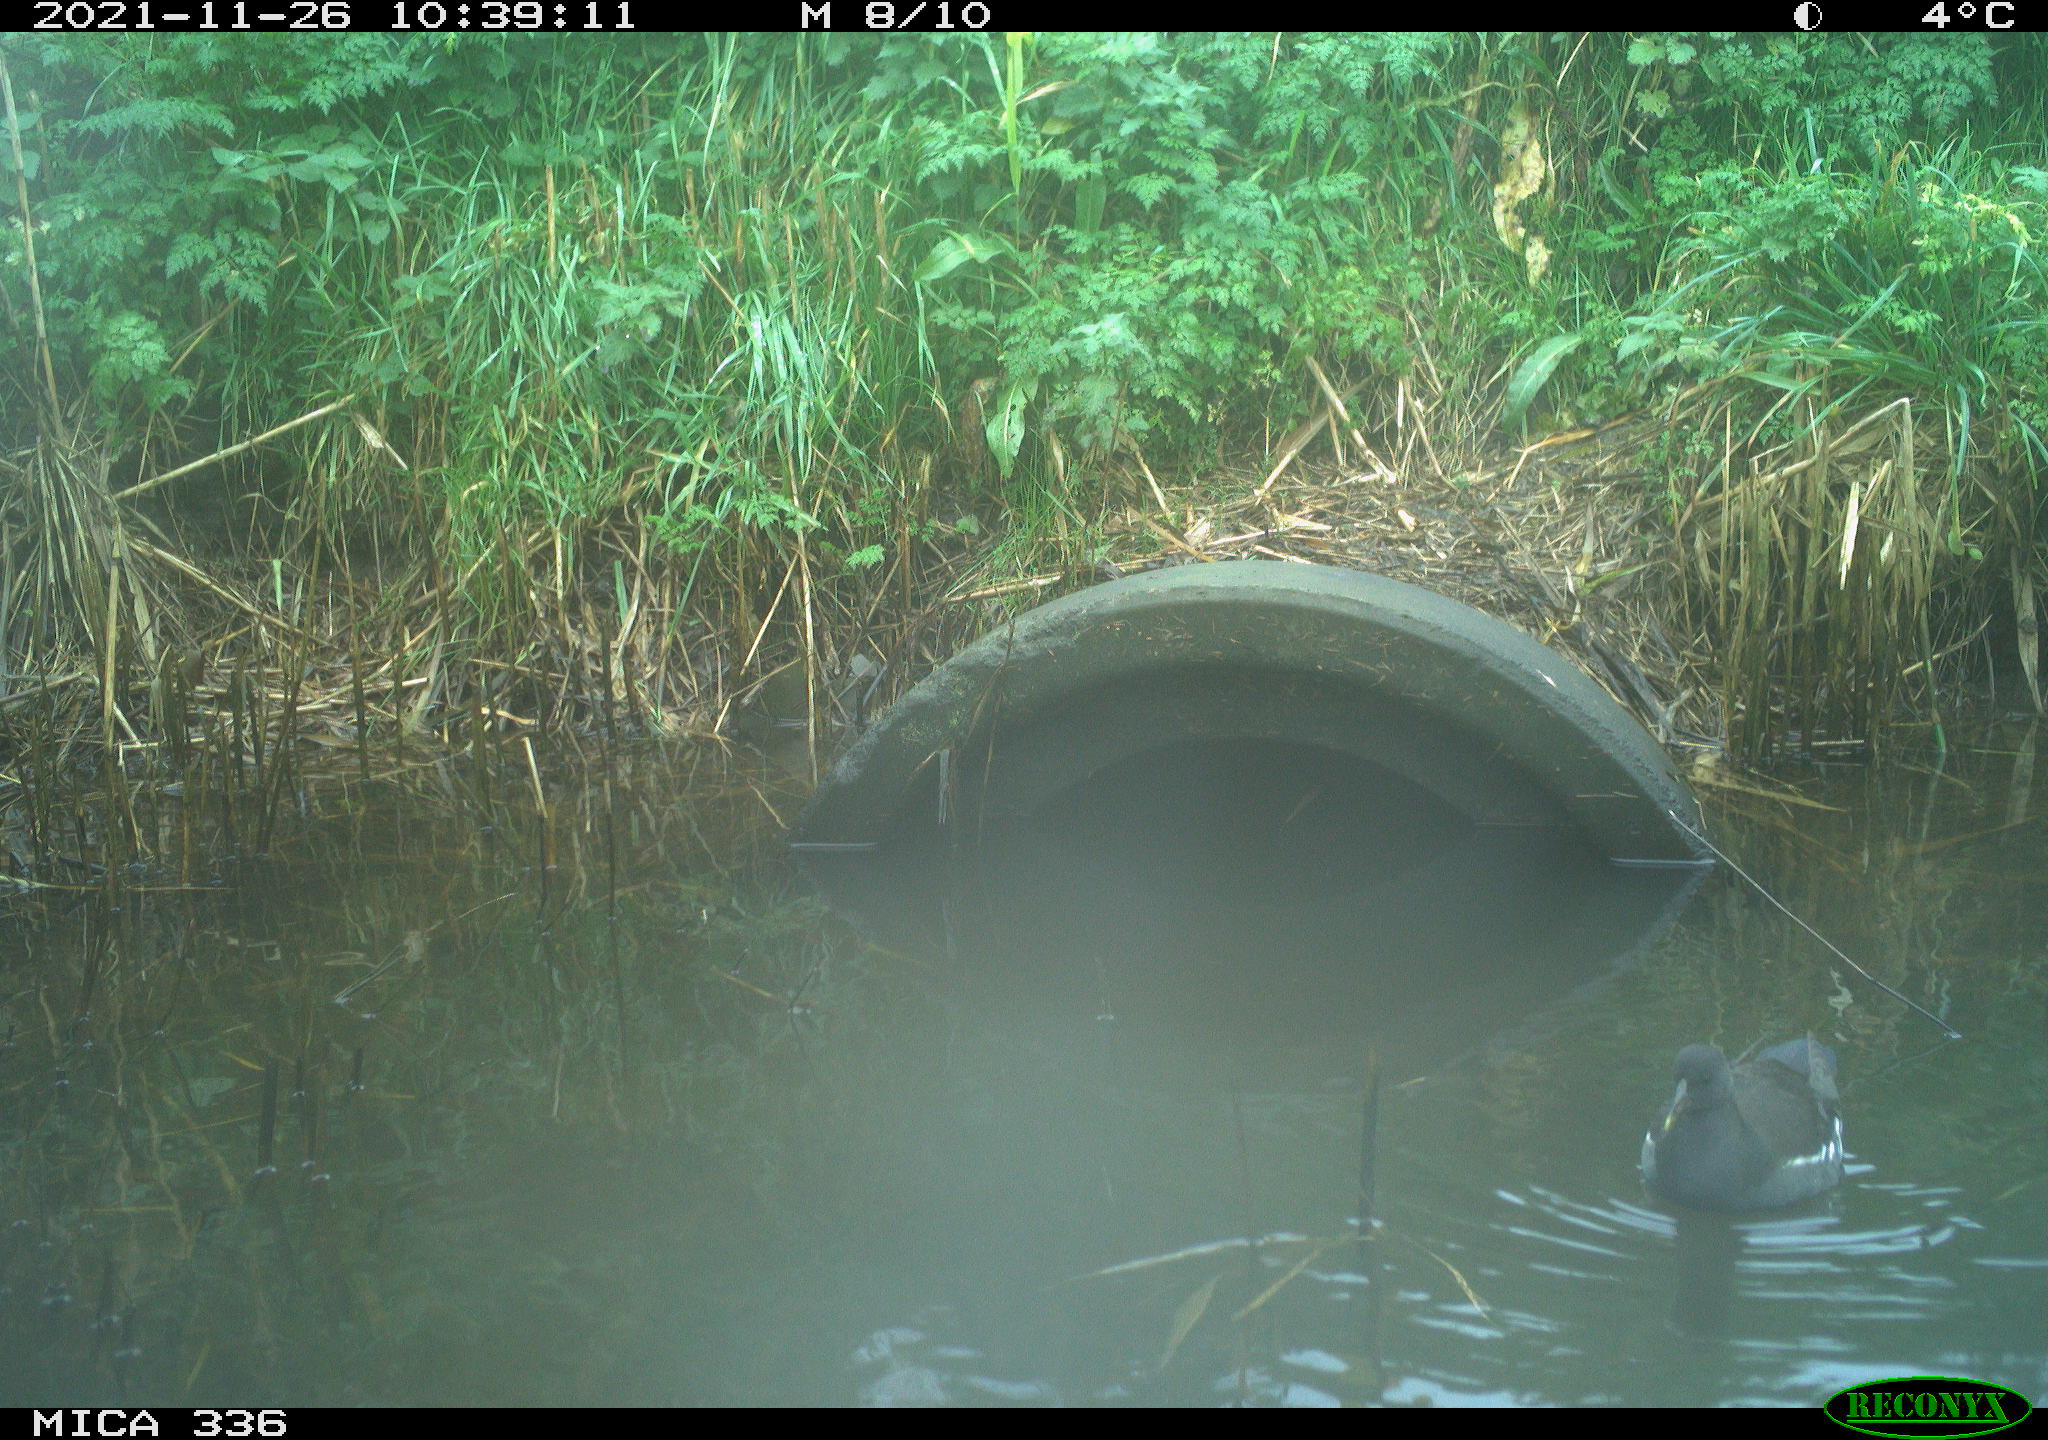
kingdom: Animalia
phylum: Chordata
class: Aves
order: Gruiformes
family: Rallidae
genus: Gallinula
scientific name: Gallinula chloropus
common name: Common moorhen
